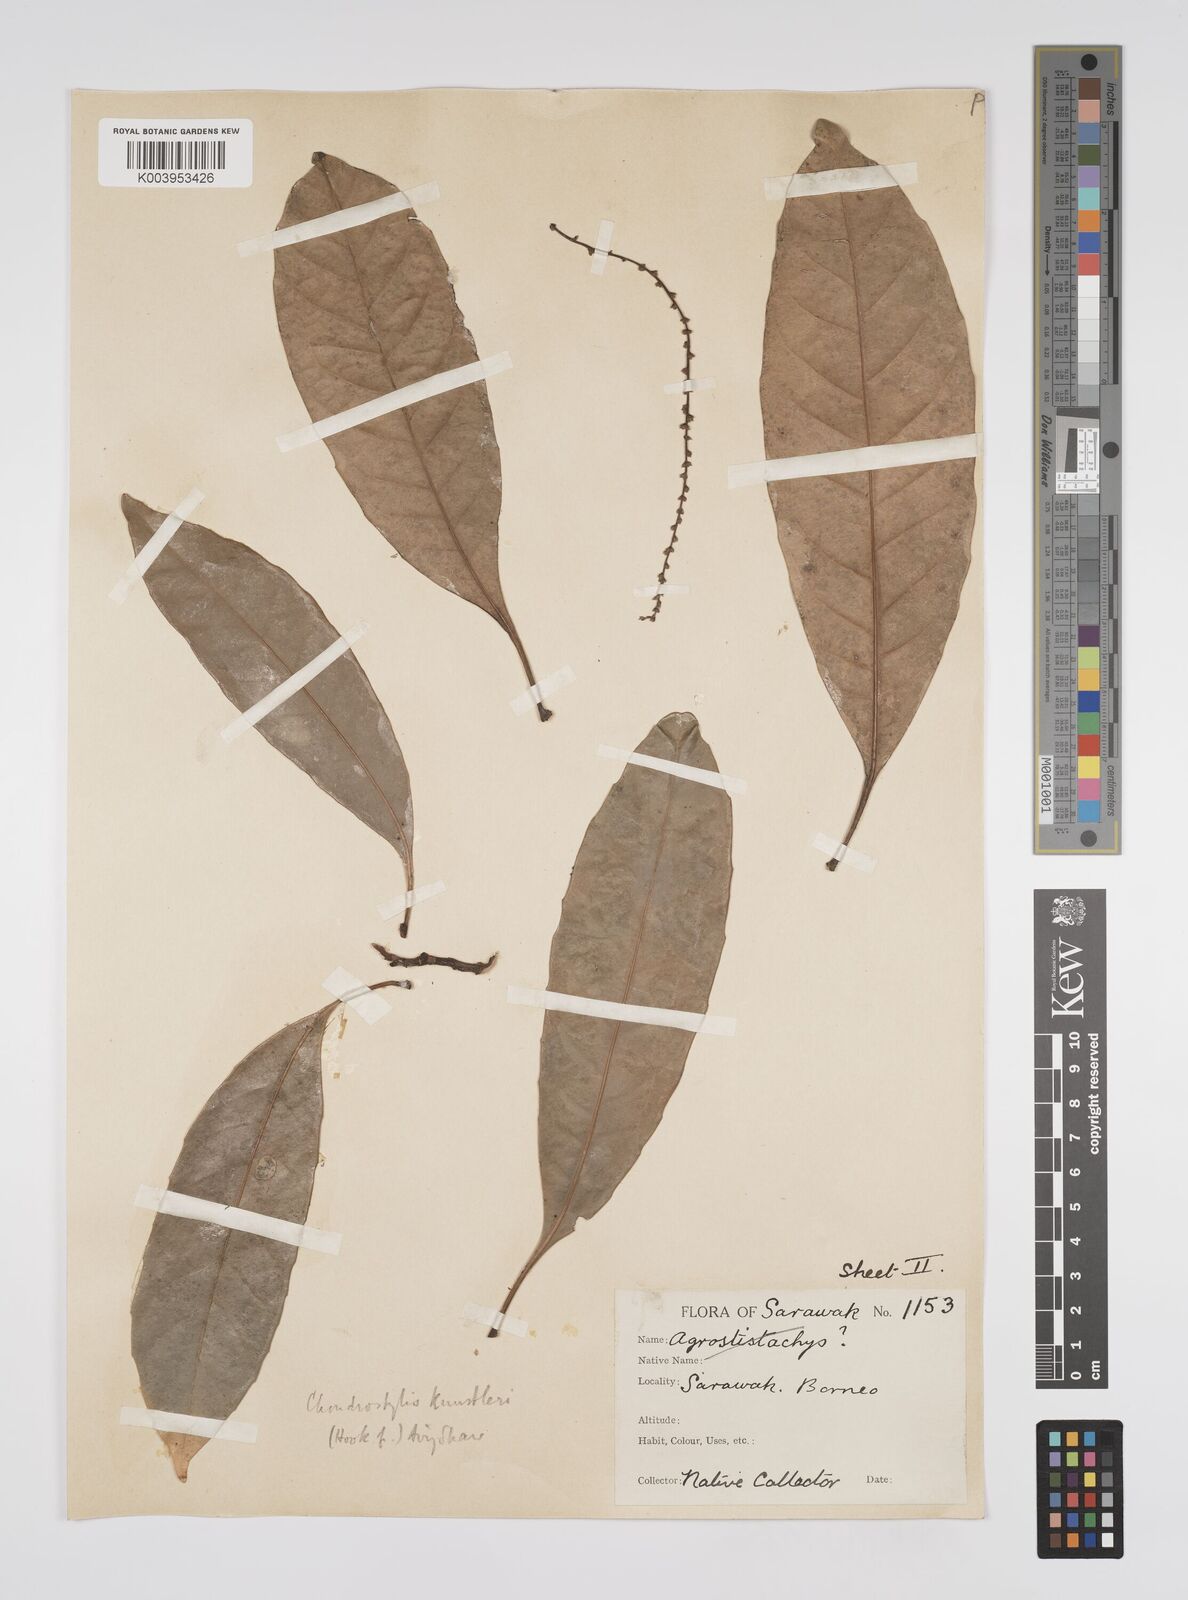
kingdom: Plantae
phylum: Tracheophyta
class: Magnoliopsida
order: Malpighiales
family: Euphorbiaceae
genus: Chondrostylis
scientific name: Chondrostylis kunstleri
